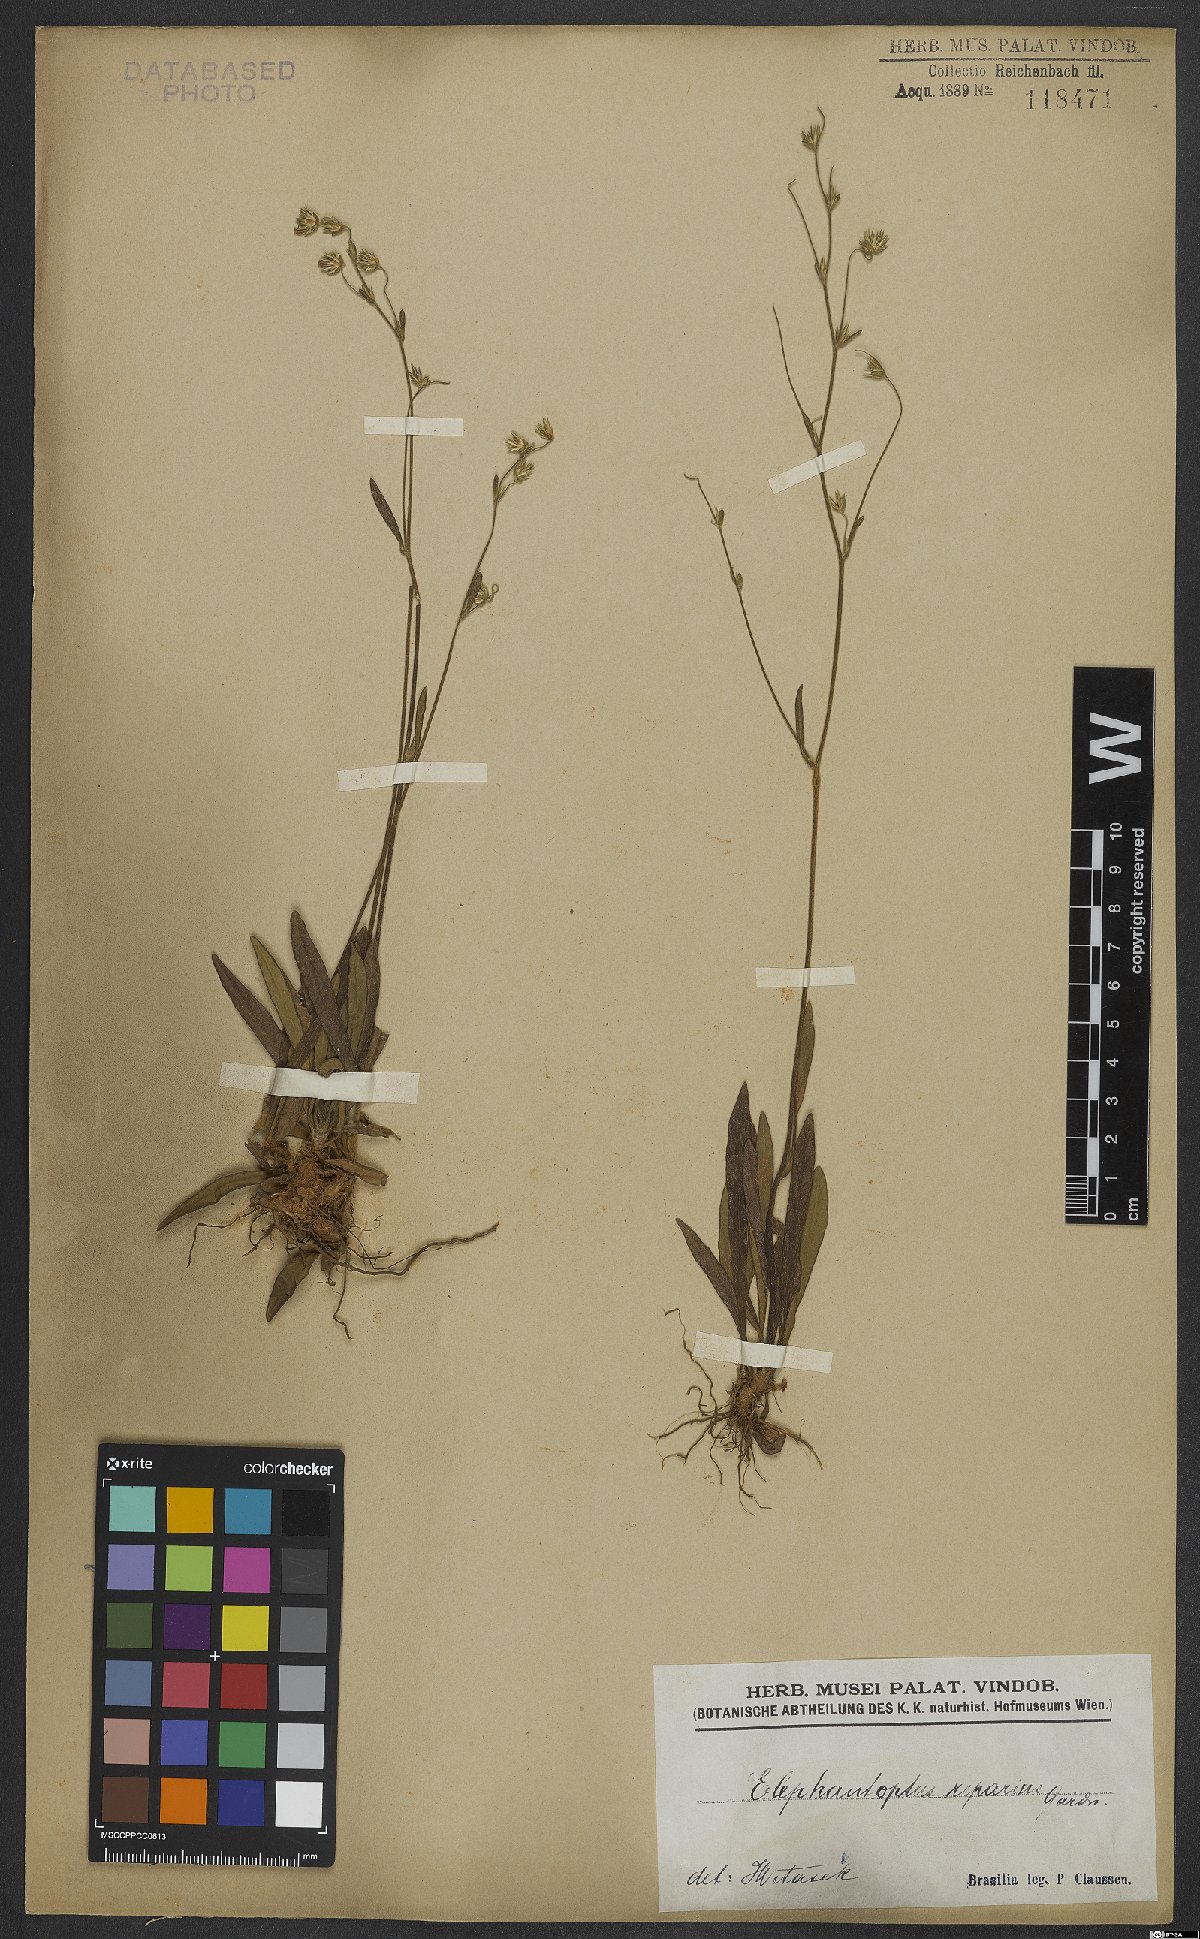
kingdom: Plantae
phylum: Tracheophyta
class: Magnoliopsida
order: Asterales
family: Asteraceae
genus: Elephantopus
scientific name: Elephantopus riparius
